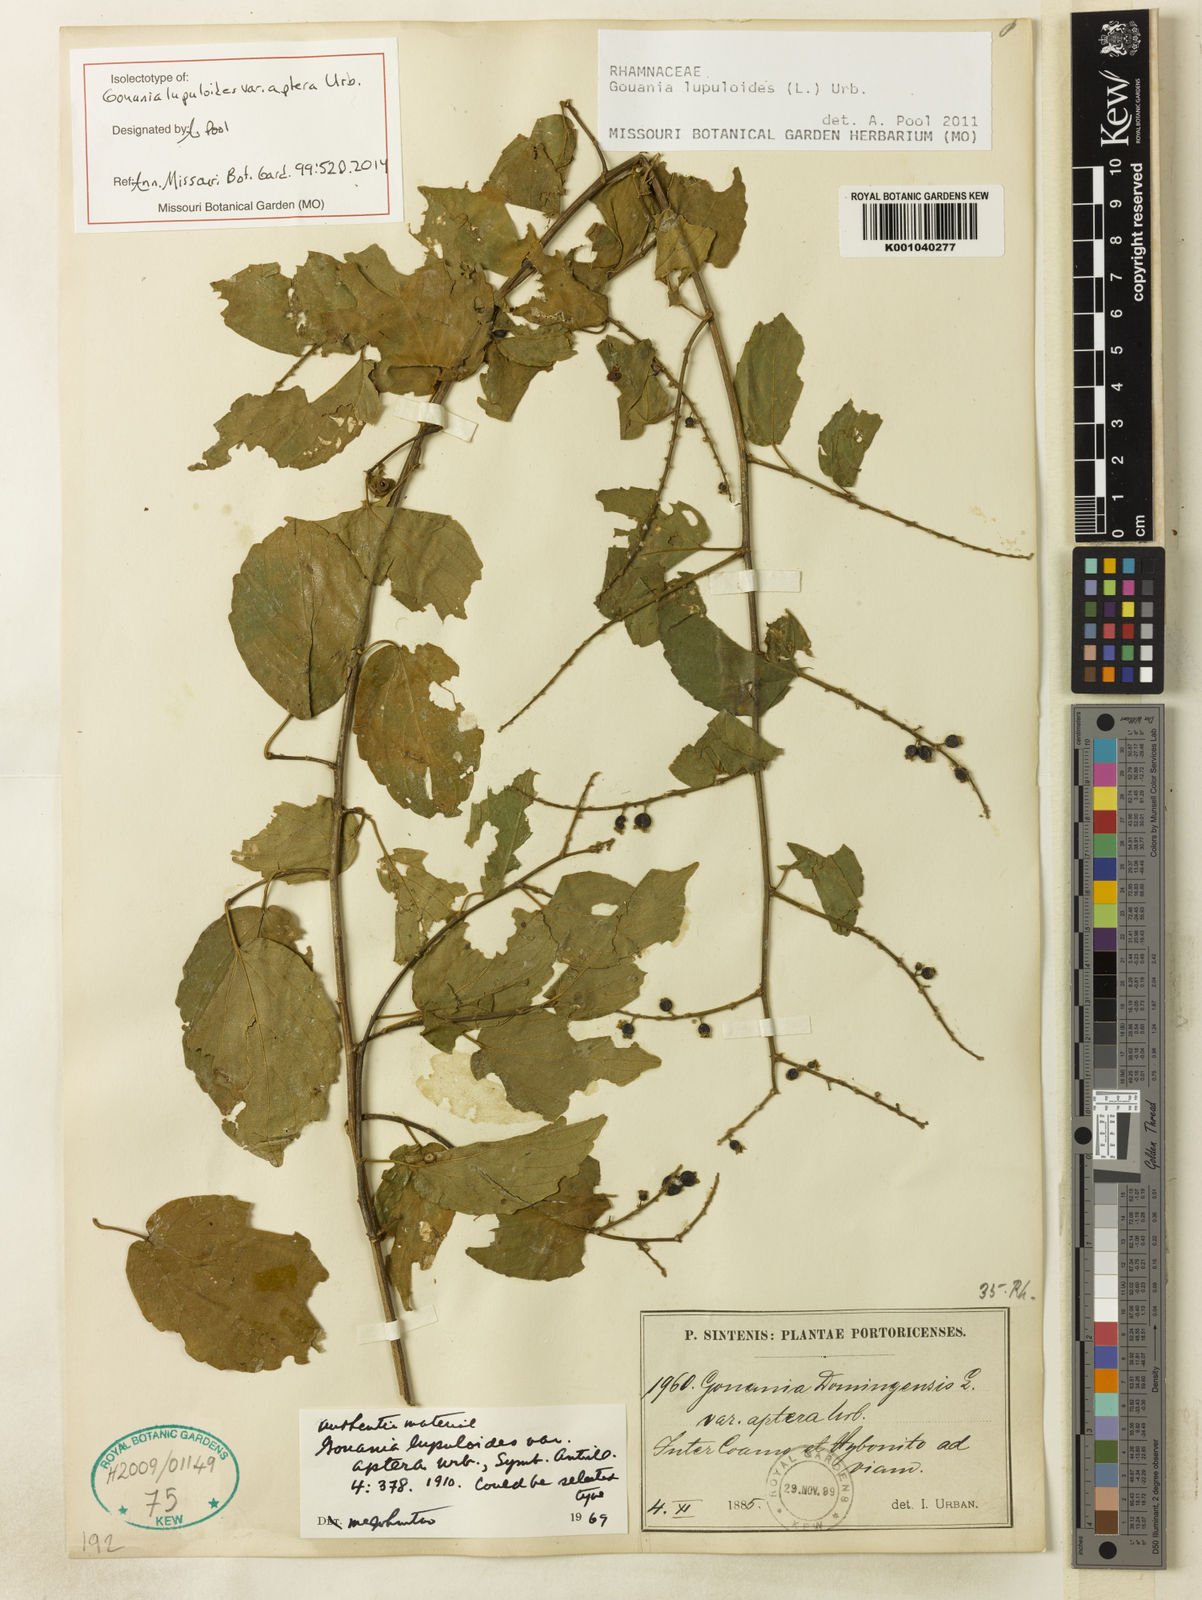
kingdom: Plantae
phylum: Tracheophyta
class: Magnoliopsida
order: Rosales
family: Rhamnaceae
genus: Gouania
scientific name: Gouania lupuloides
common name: Chewstick
